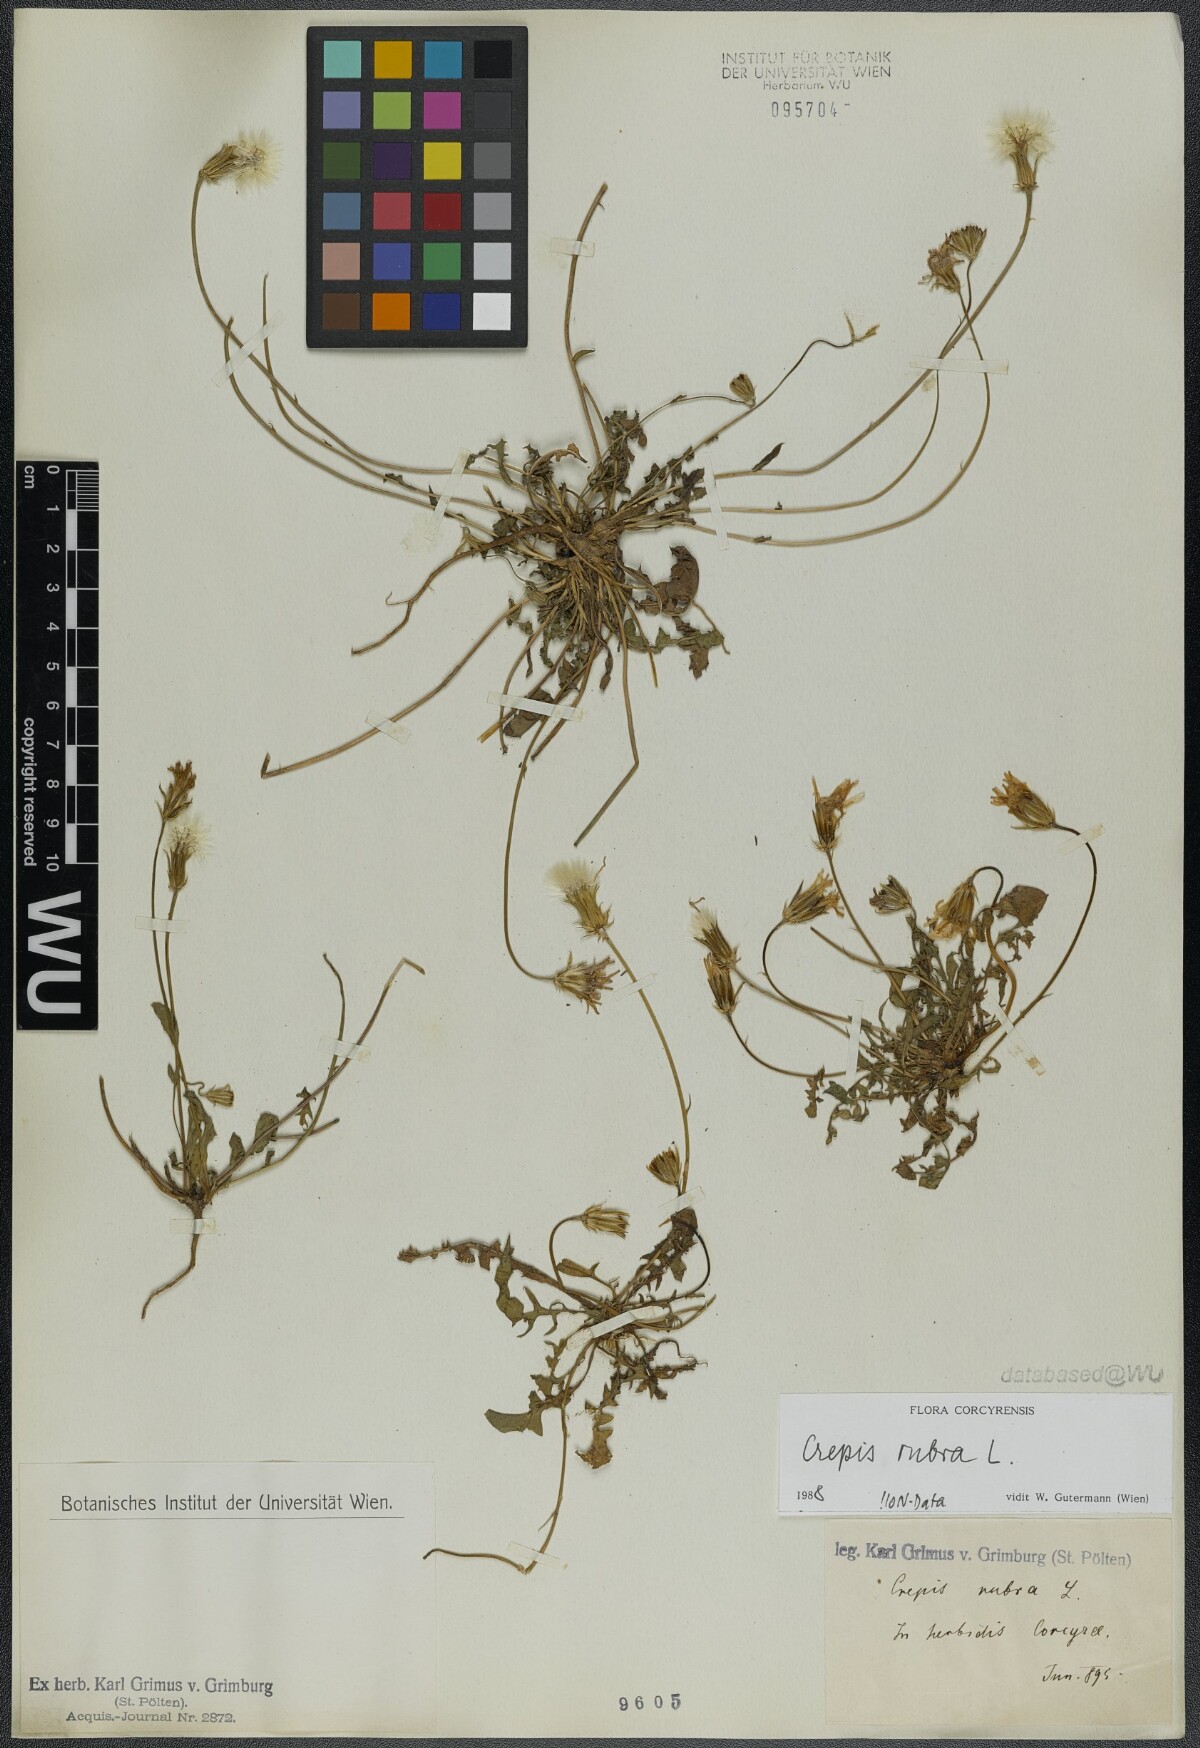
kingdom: Plantae
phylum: Tracheophyta
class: Magnoliopsida
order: Asterales
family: Asteraceae
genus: Crepis
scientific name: Crepis rubra
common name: Pink hawk's-beard
